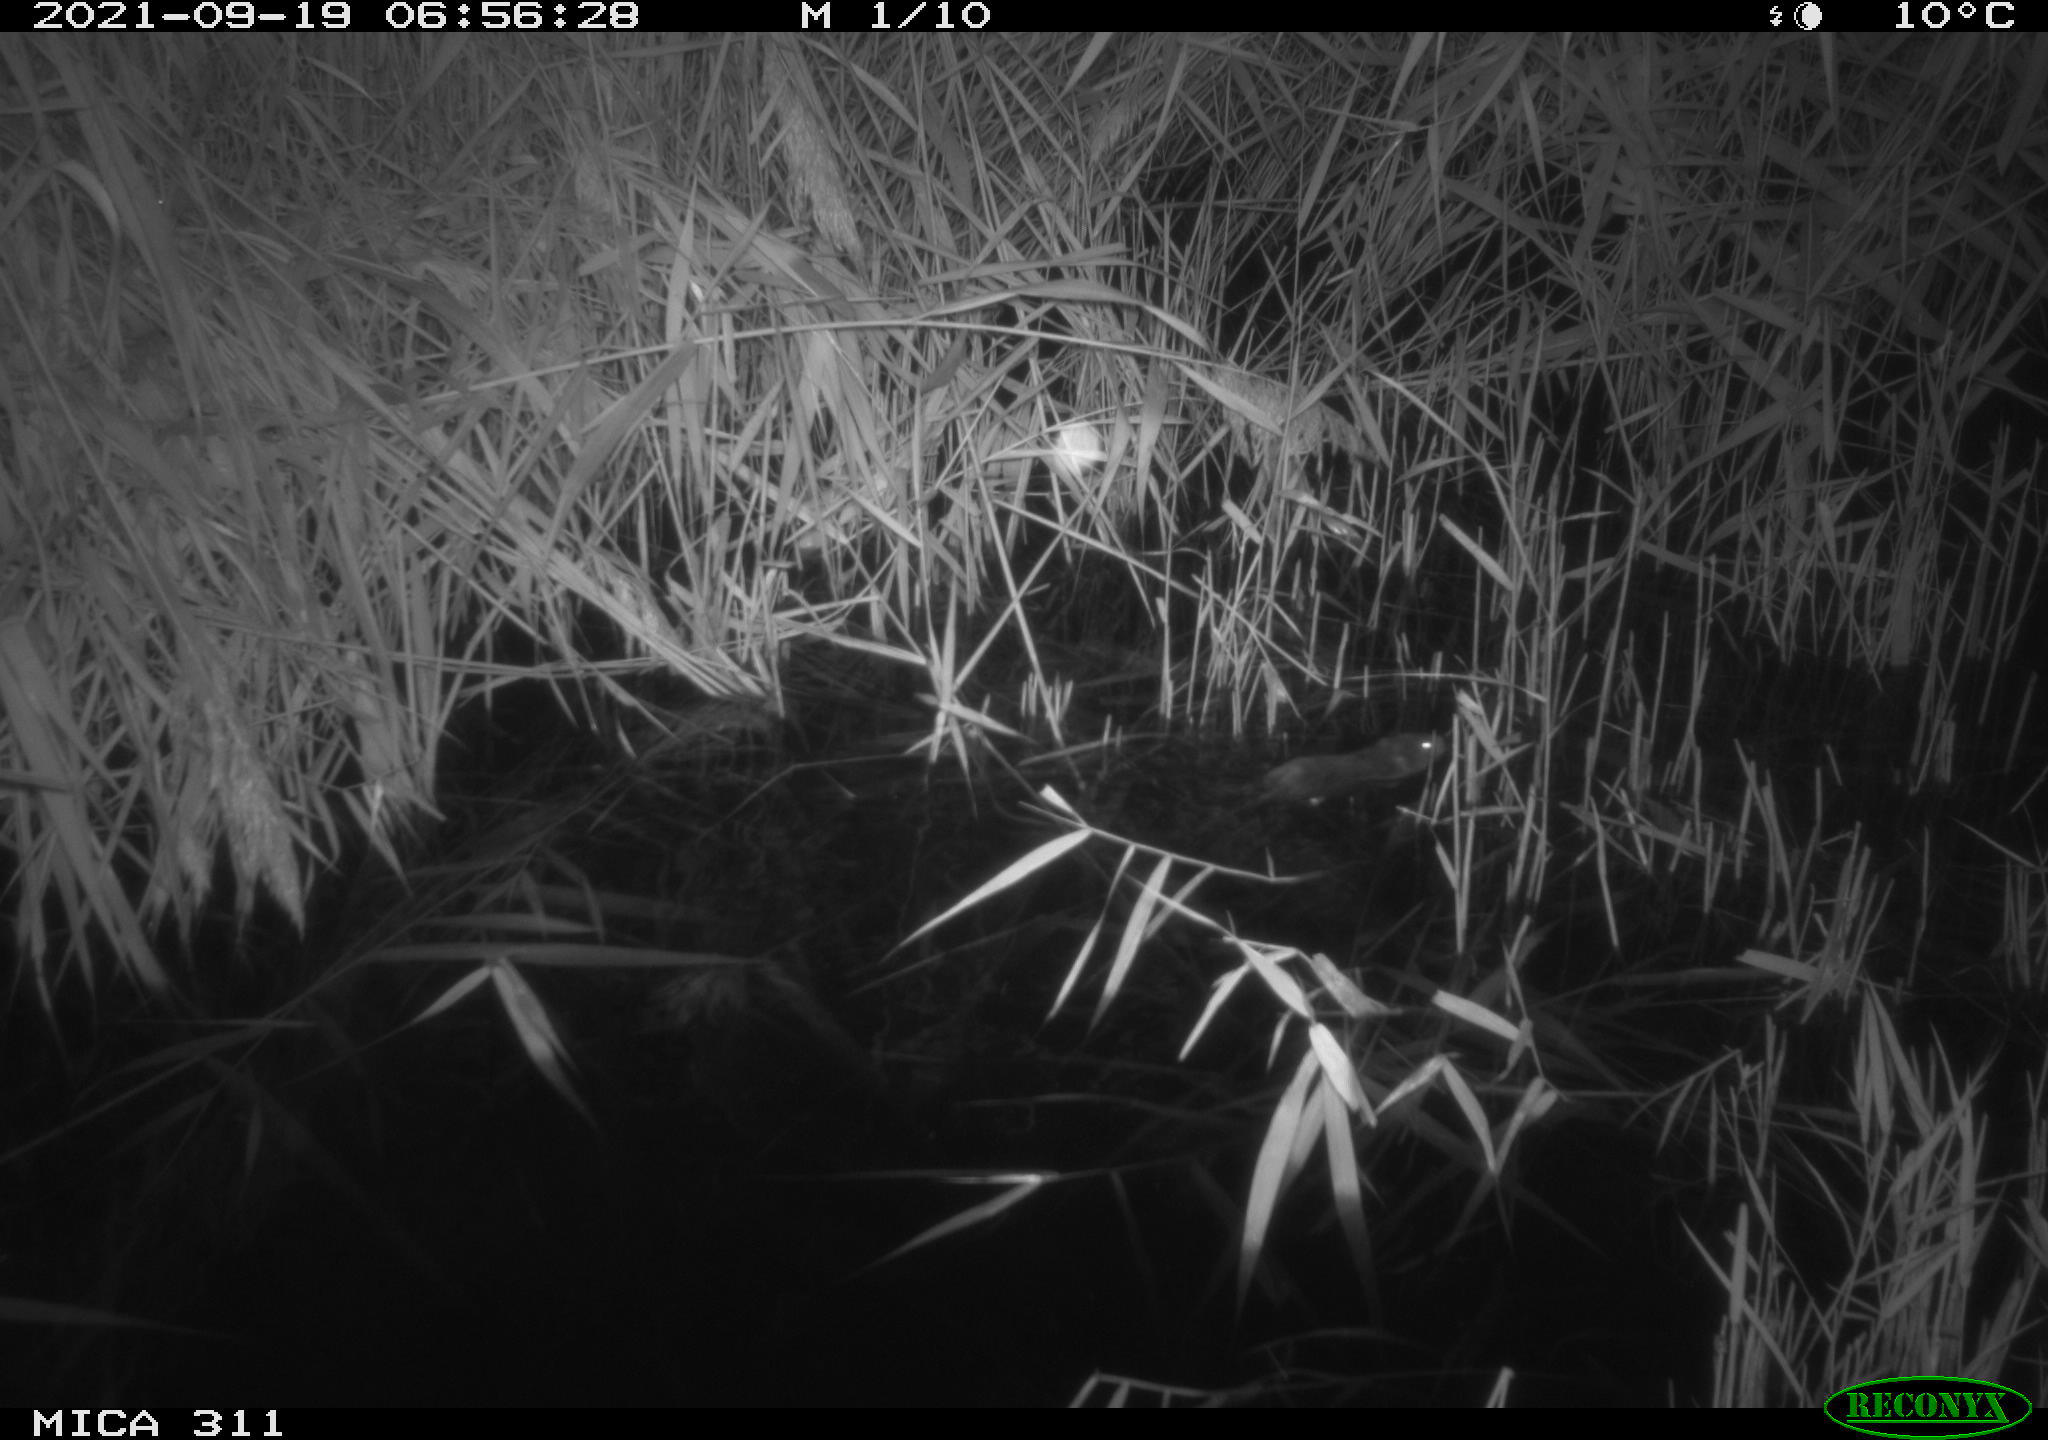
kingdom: Animalia
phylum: Chordata
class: Mammalia
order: Rodentia
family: Muridae
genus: Rattus
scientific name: Rattus norvegicus
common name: Brown rat
